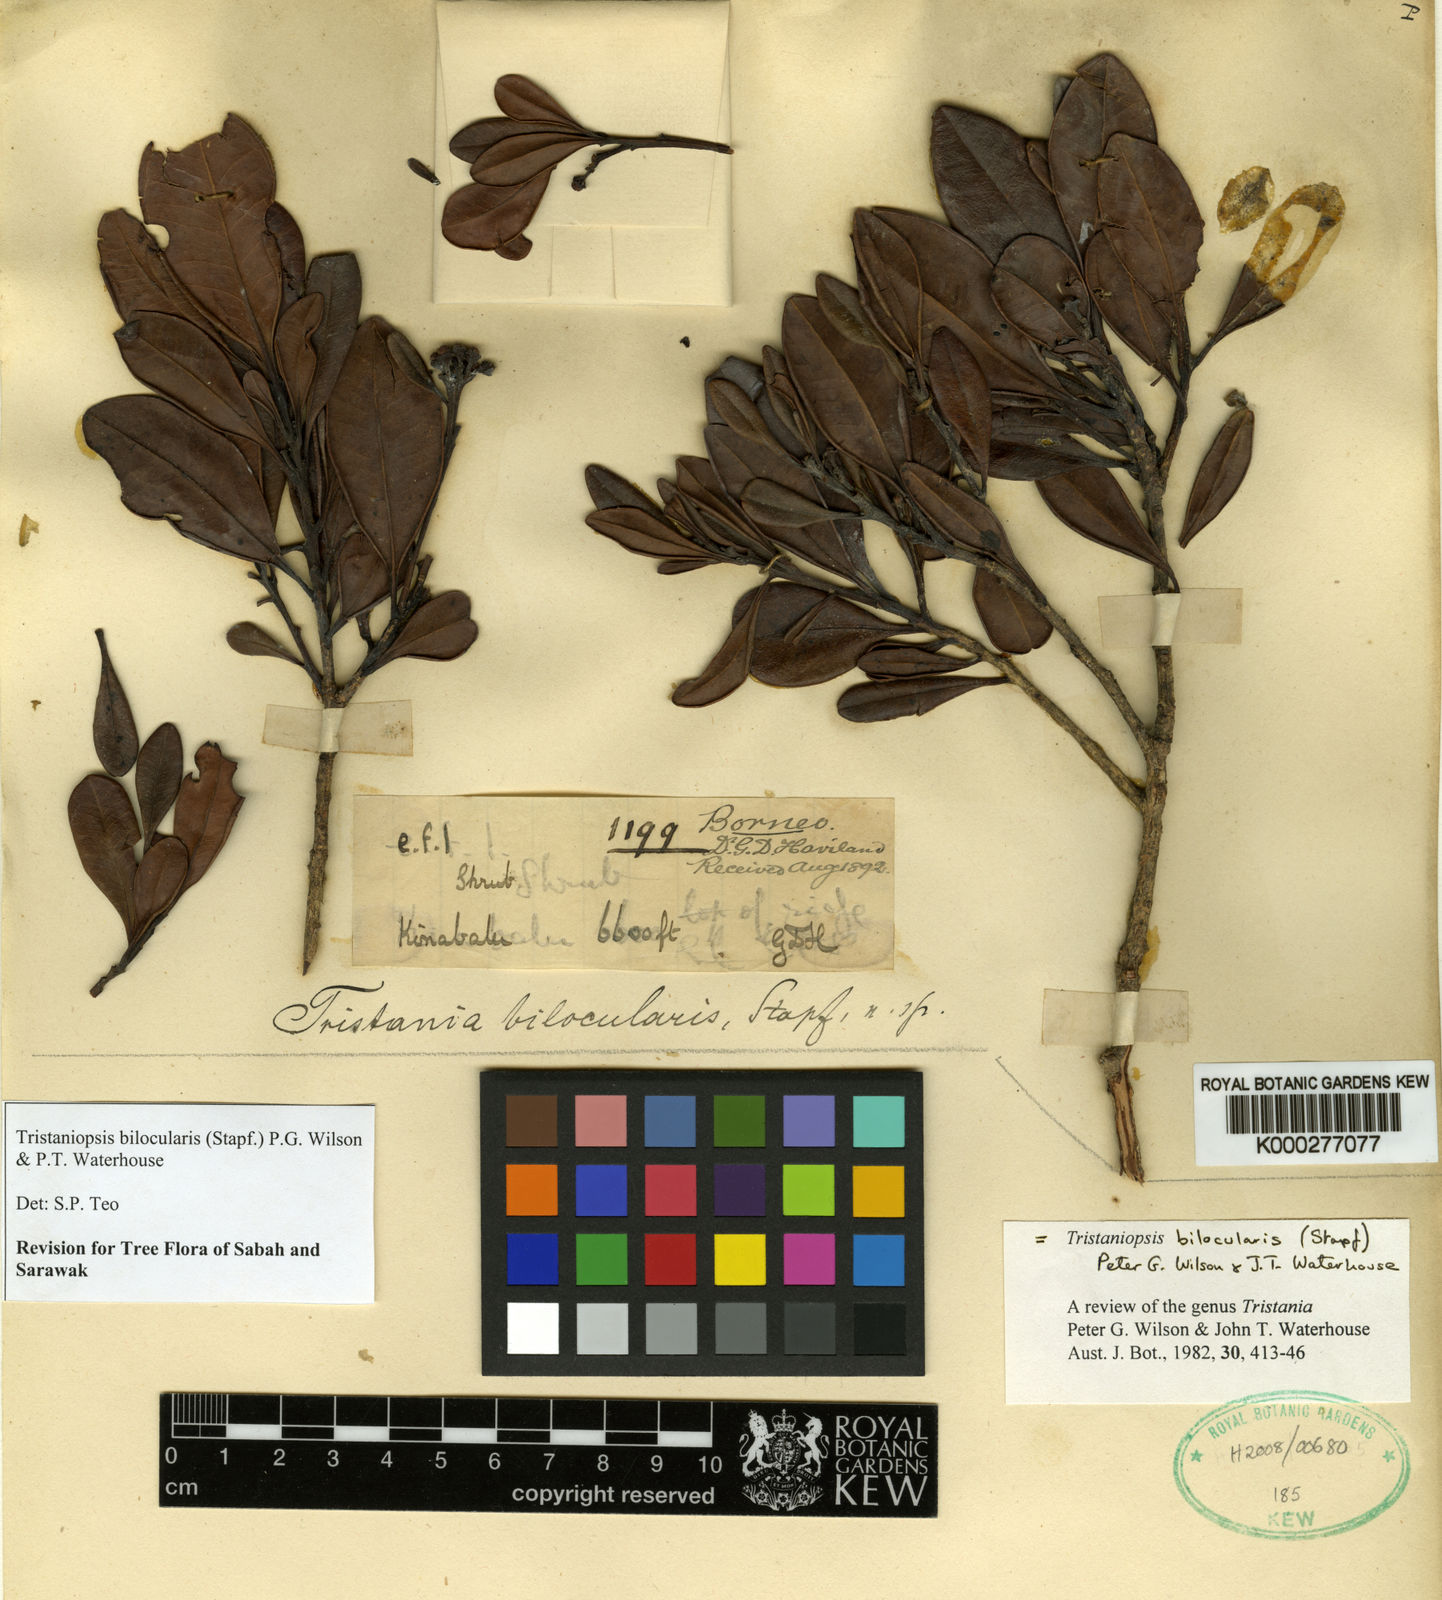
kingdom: Plantae
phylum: Tracheophyta
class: Magnoliopsida
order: Myrtales
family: Myrtaceae
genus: Tristaniopsis
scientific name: Tristaniopsis bilocularis
